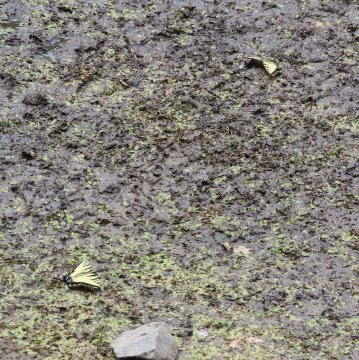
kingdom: Animalia
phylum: Arthropoda
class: Insecta
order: Lepidoptera
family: Papilionidae
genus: Pterourus
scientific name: Pterourus glaucus
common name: Eastern Tiger Swallowtail
